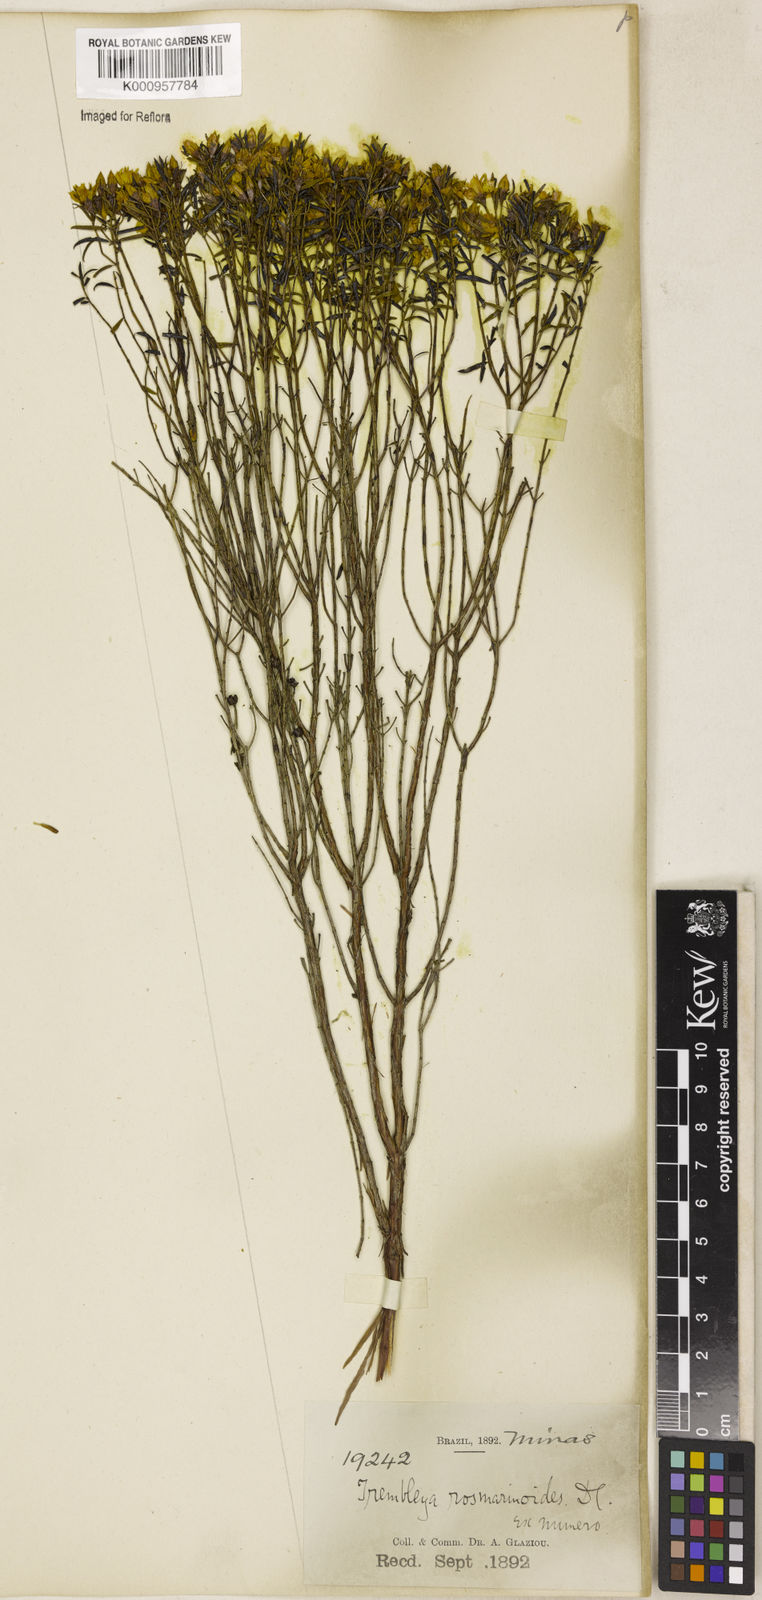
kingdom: Plantae
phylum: Tracheophyta
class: Magnoliopsida
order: Myrtales
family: Melastomataceae
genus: Microlicia
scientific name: Microlicia rosmarinoides
